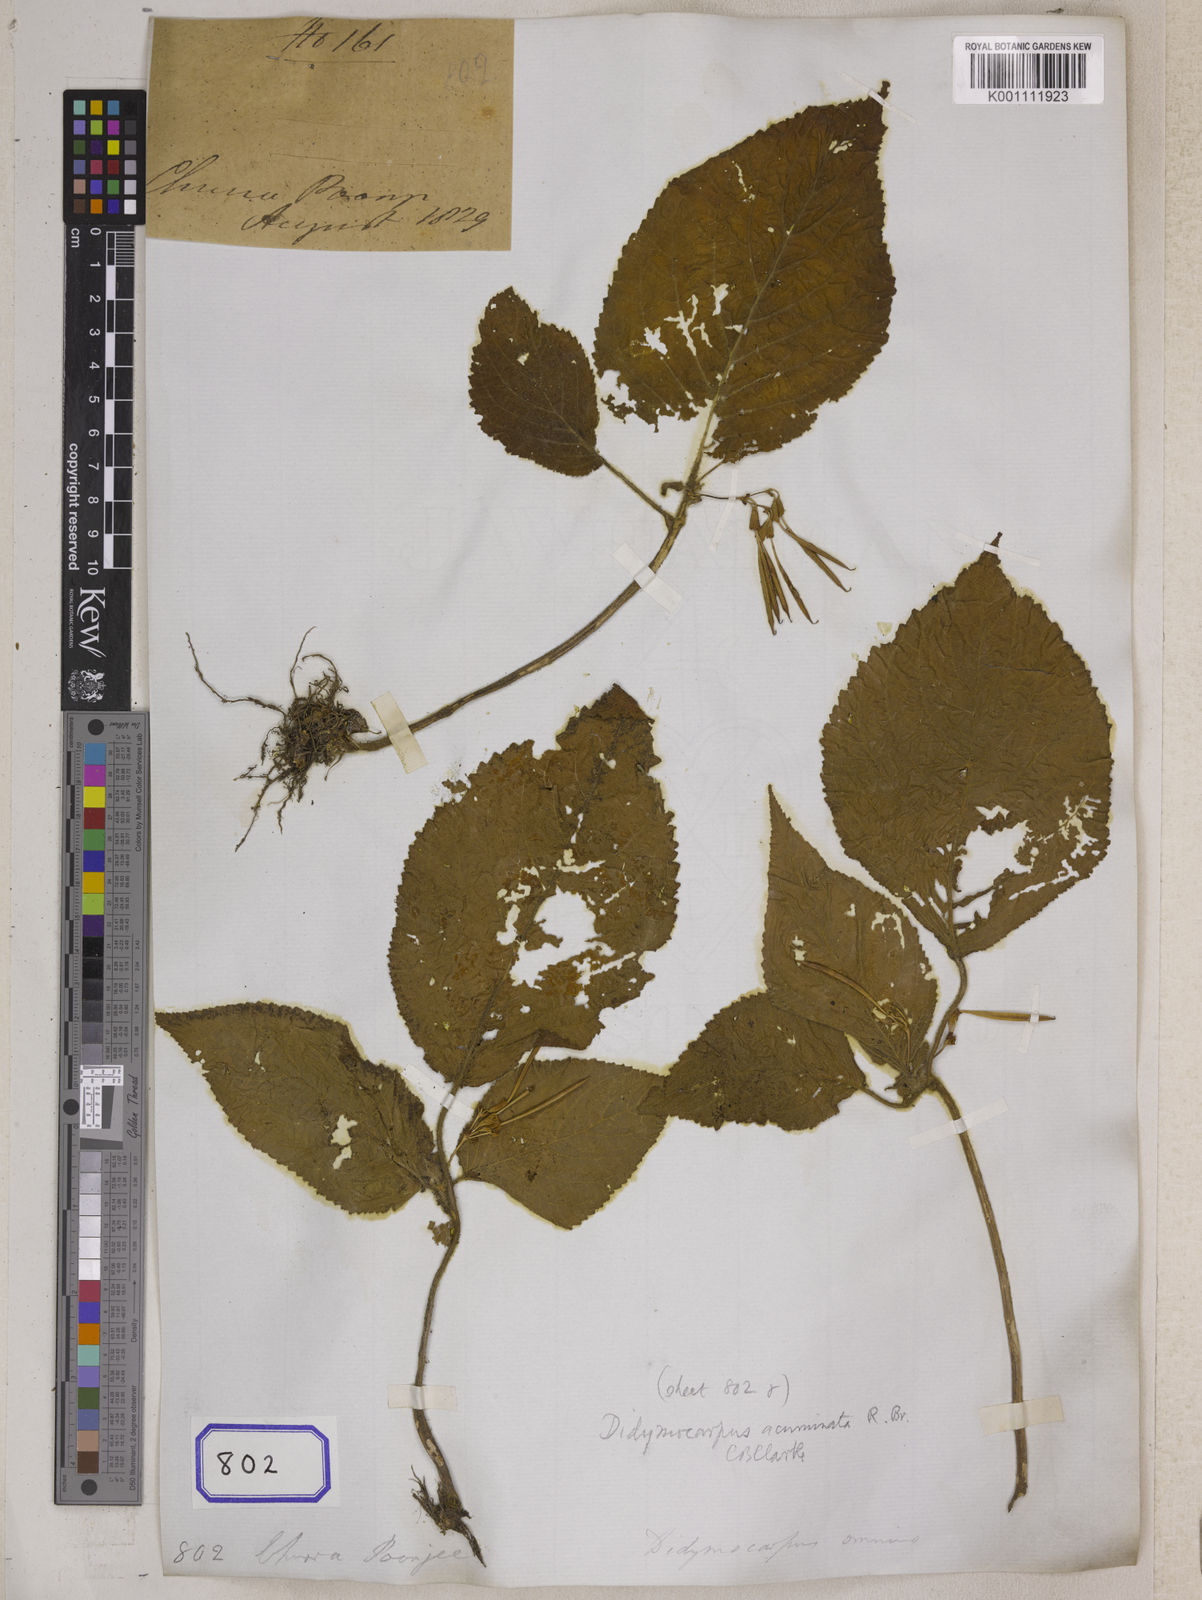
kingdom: Plantae
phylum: Tracheophyta
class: Magnoliopsida
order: Lamiales
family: Gesneriaceae
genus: Didymocarpus
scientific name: Didymocarpus acuminatus
